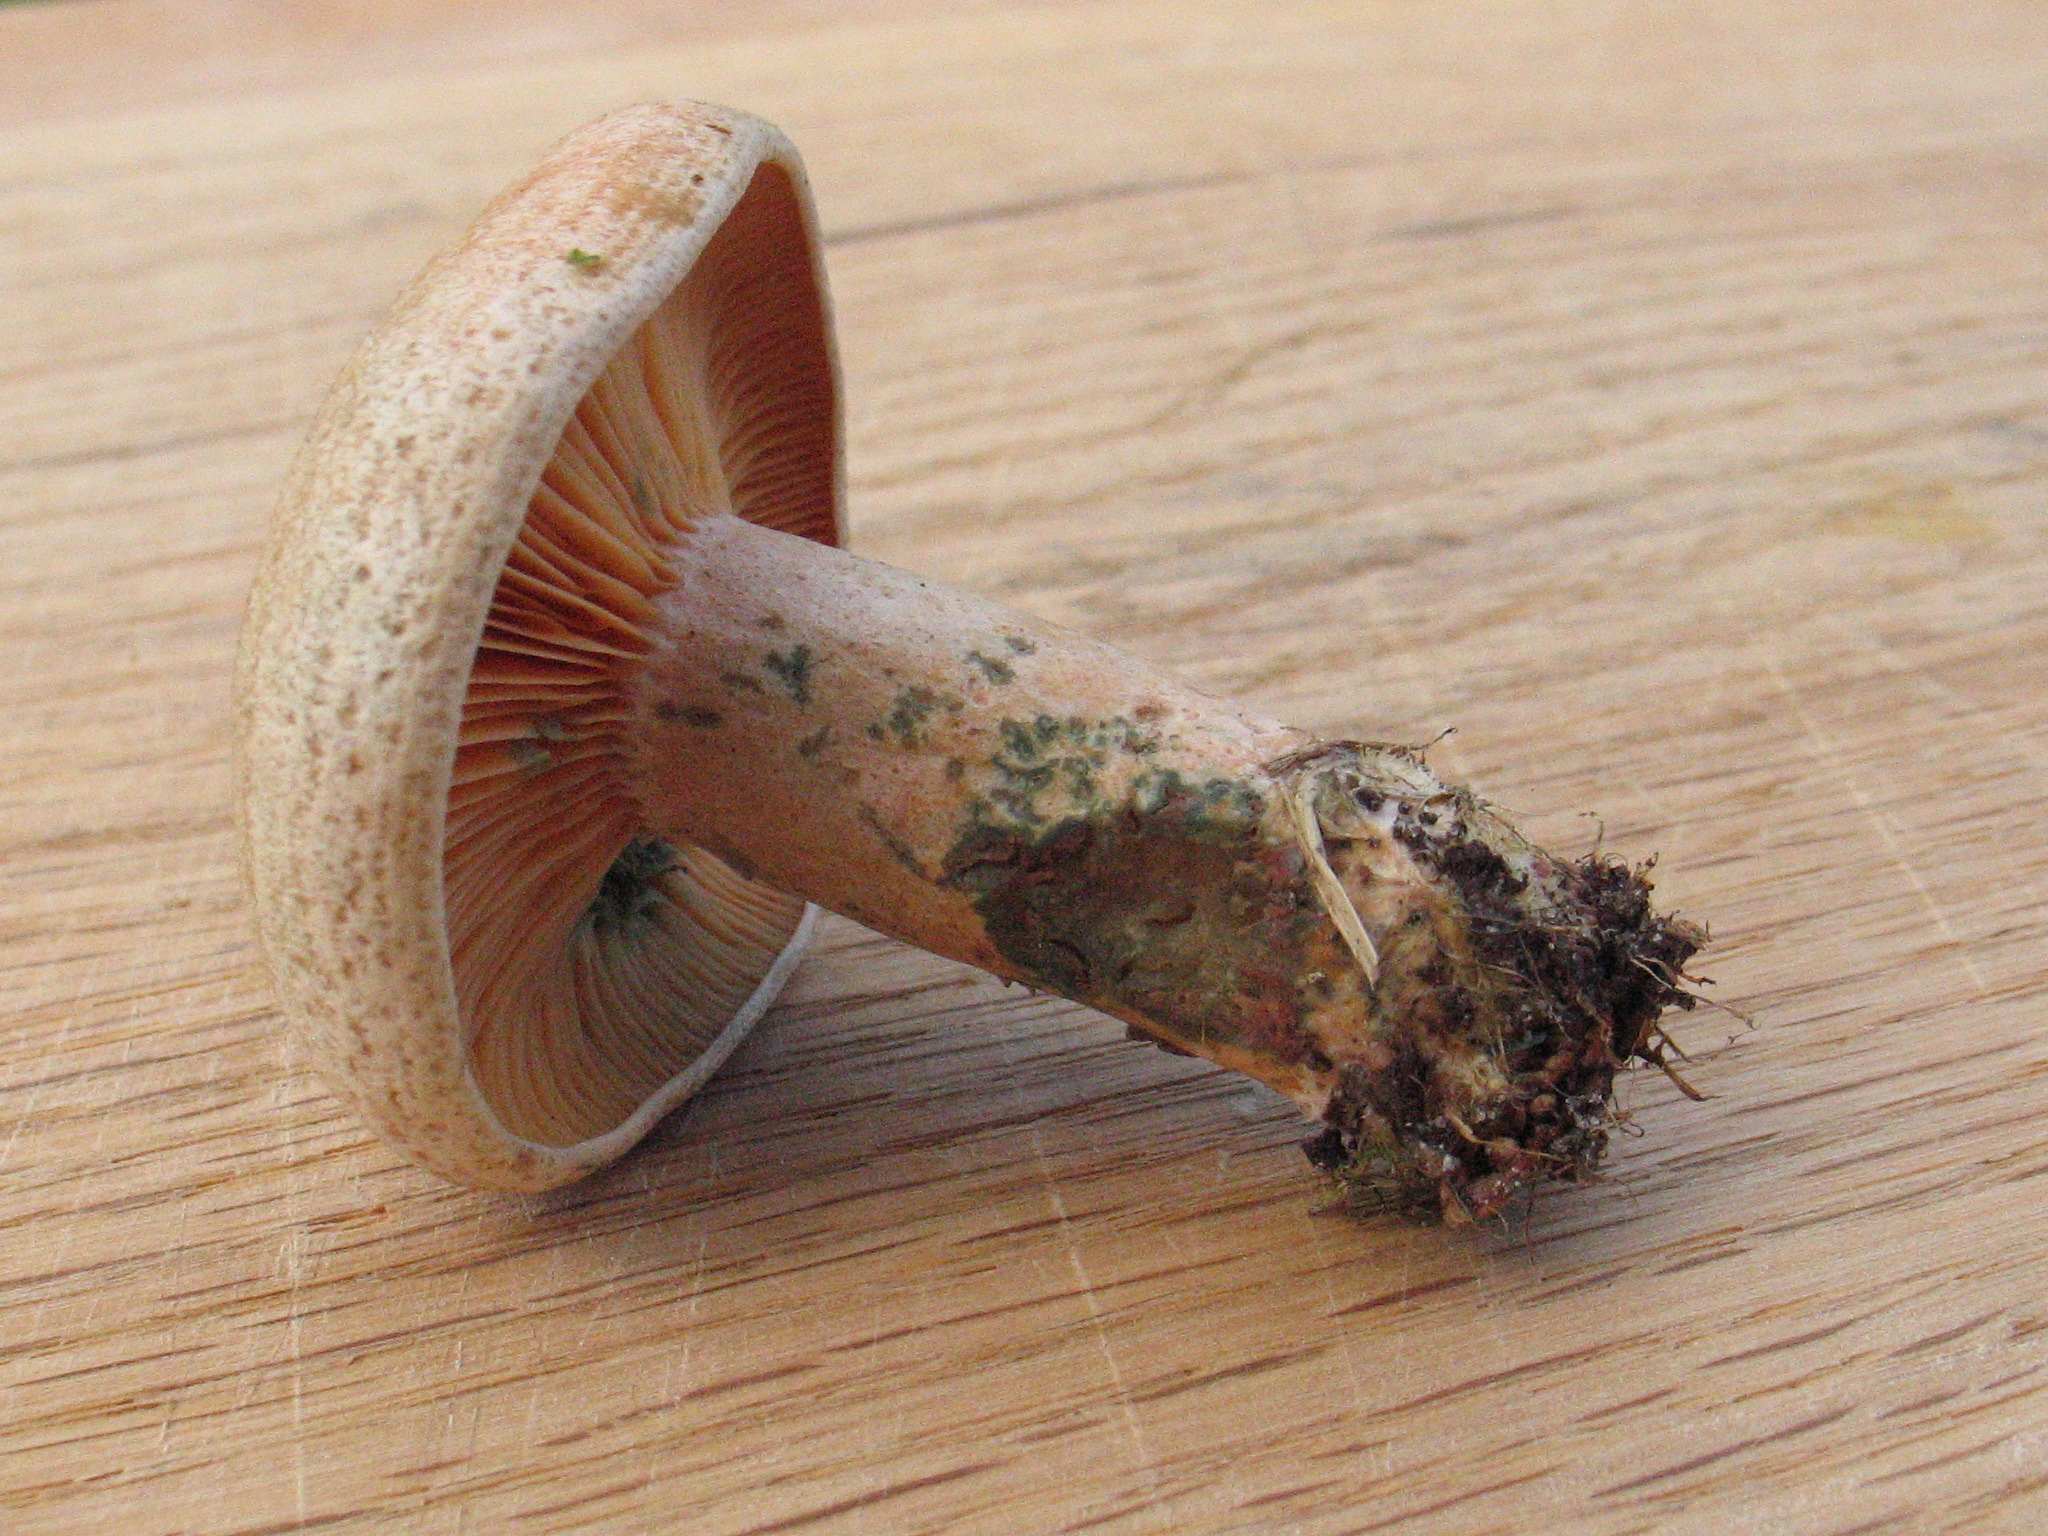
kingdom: Fungi
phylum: Basidiomycota
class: Agaricomycetes
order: Russulales
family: Russulaceae
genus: Lactarius
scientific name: Lactarius quieticolor
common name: tvefarvet mælkehat
